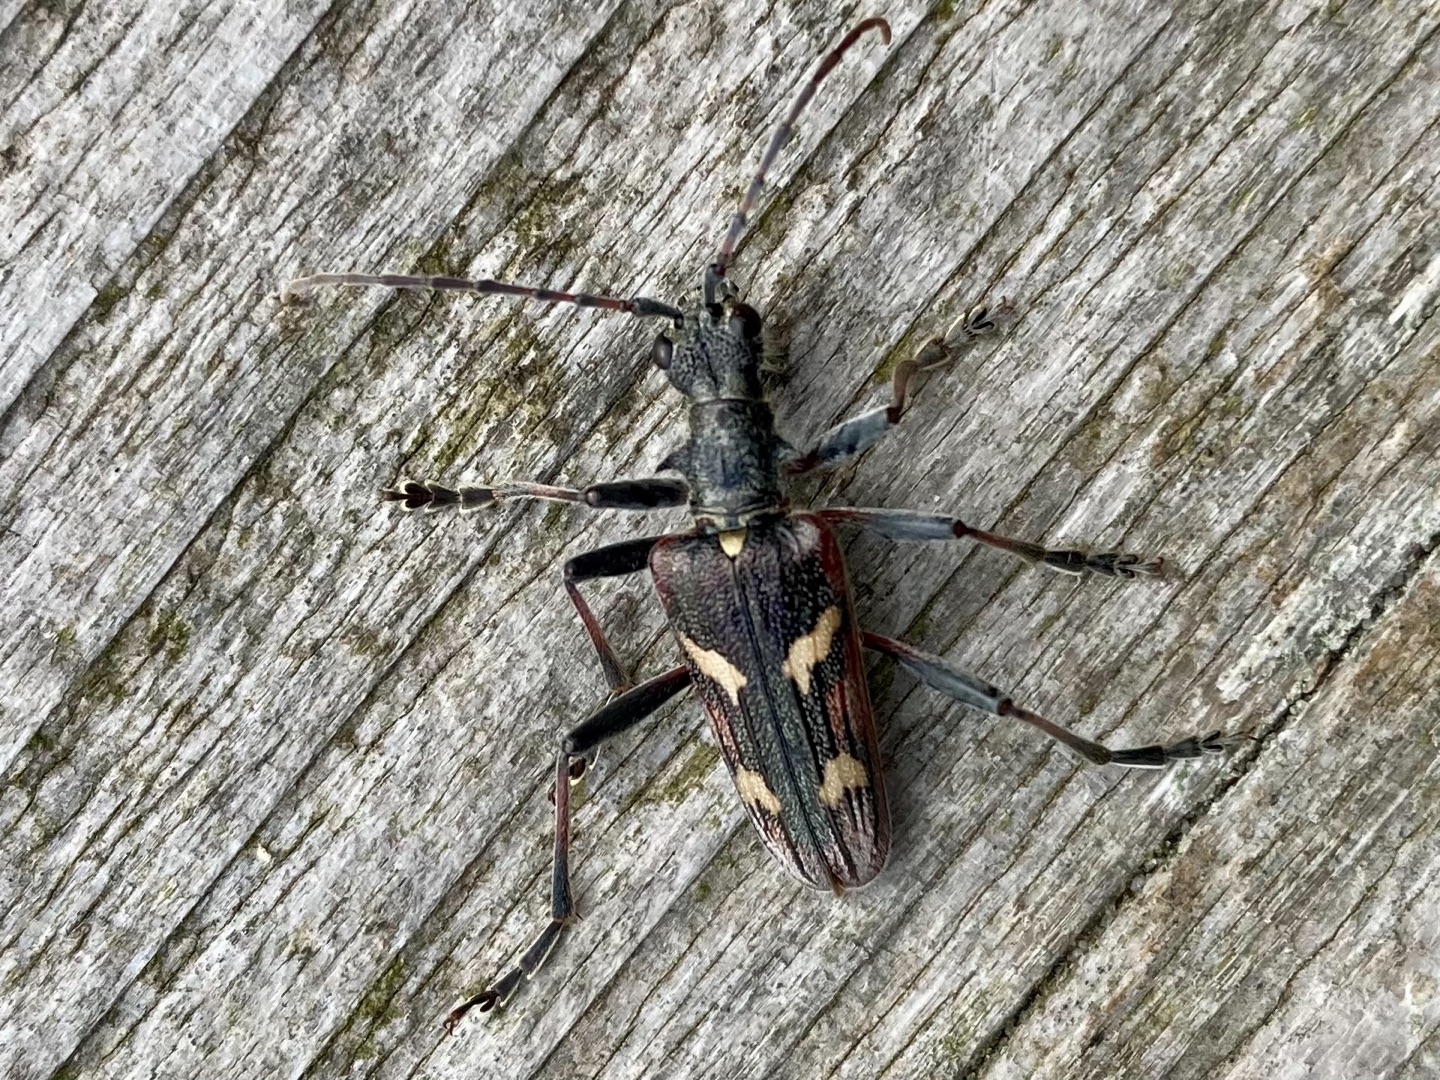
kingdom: Animalia
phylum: Arthropoda
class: Insecta
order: Coleoptera
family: Cerambycidae
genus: Rhagium
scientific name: Rhagium bifasciatum
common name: Båndet tandbuk
